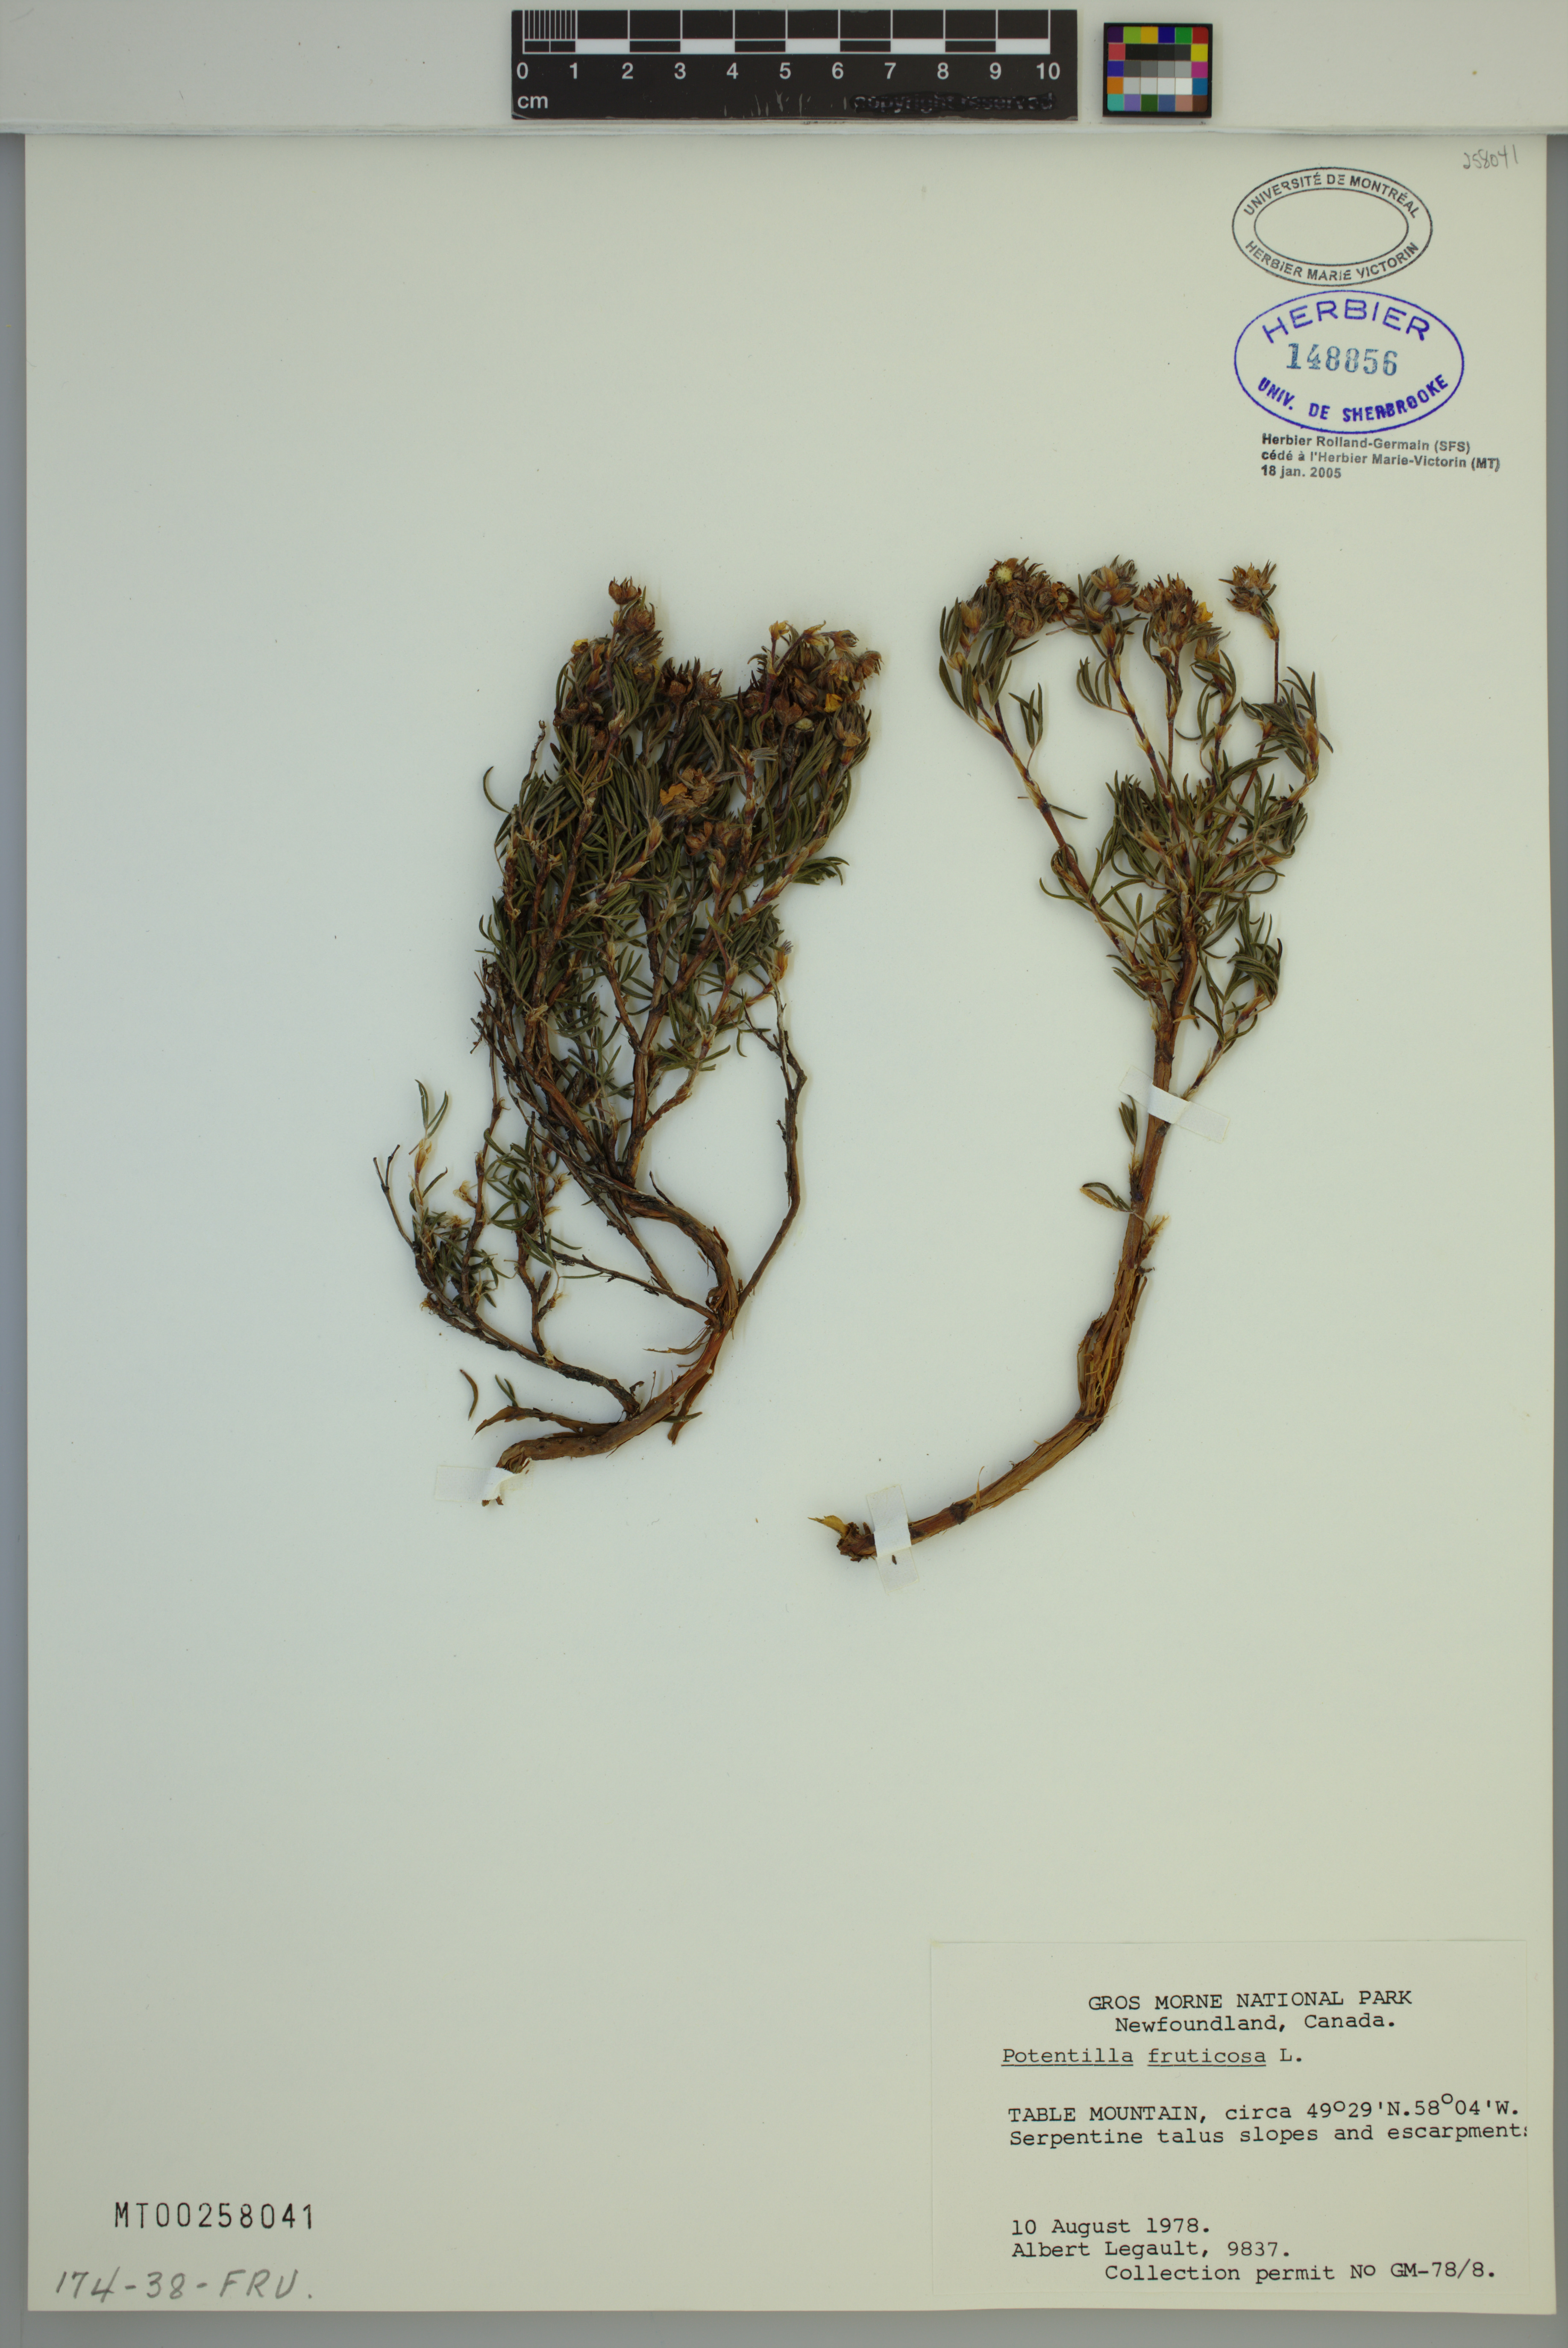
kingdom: Plantae
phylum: Tracheophyta
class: Magnoliopsida
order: Rosales
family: Rosaceae
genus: Dasiphora
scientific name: Dasiphora fruticosa
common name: Shrubby cinquefoil
